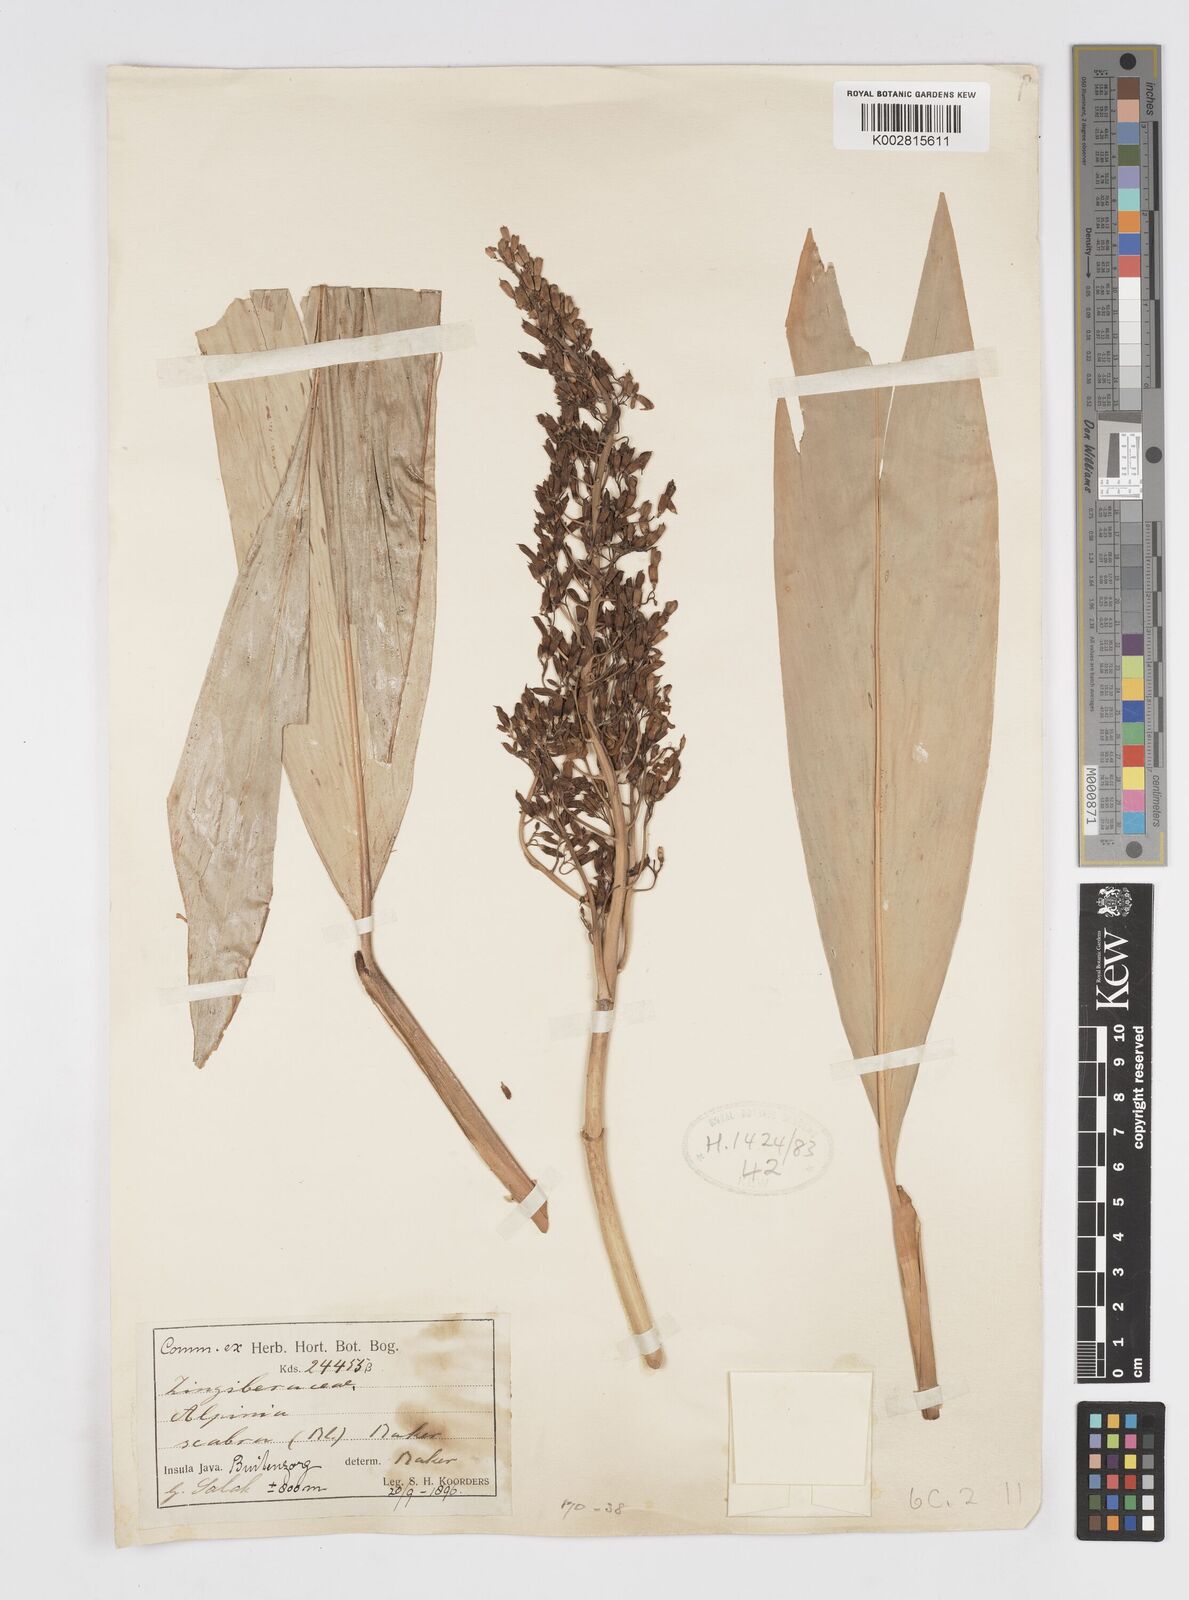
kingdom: Plantae
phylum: Tracheophyta
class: Liliopsida
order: Zingiberales
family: Zingiberaceae
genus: Alpinia
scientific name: Alpinia scabra
